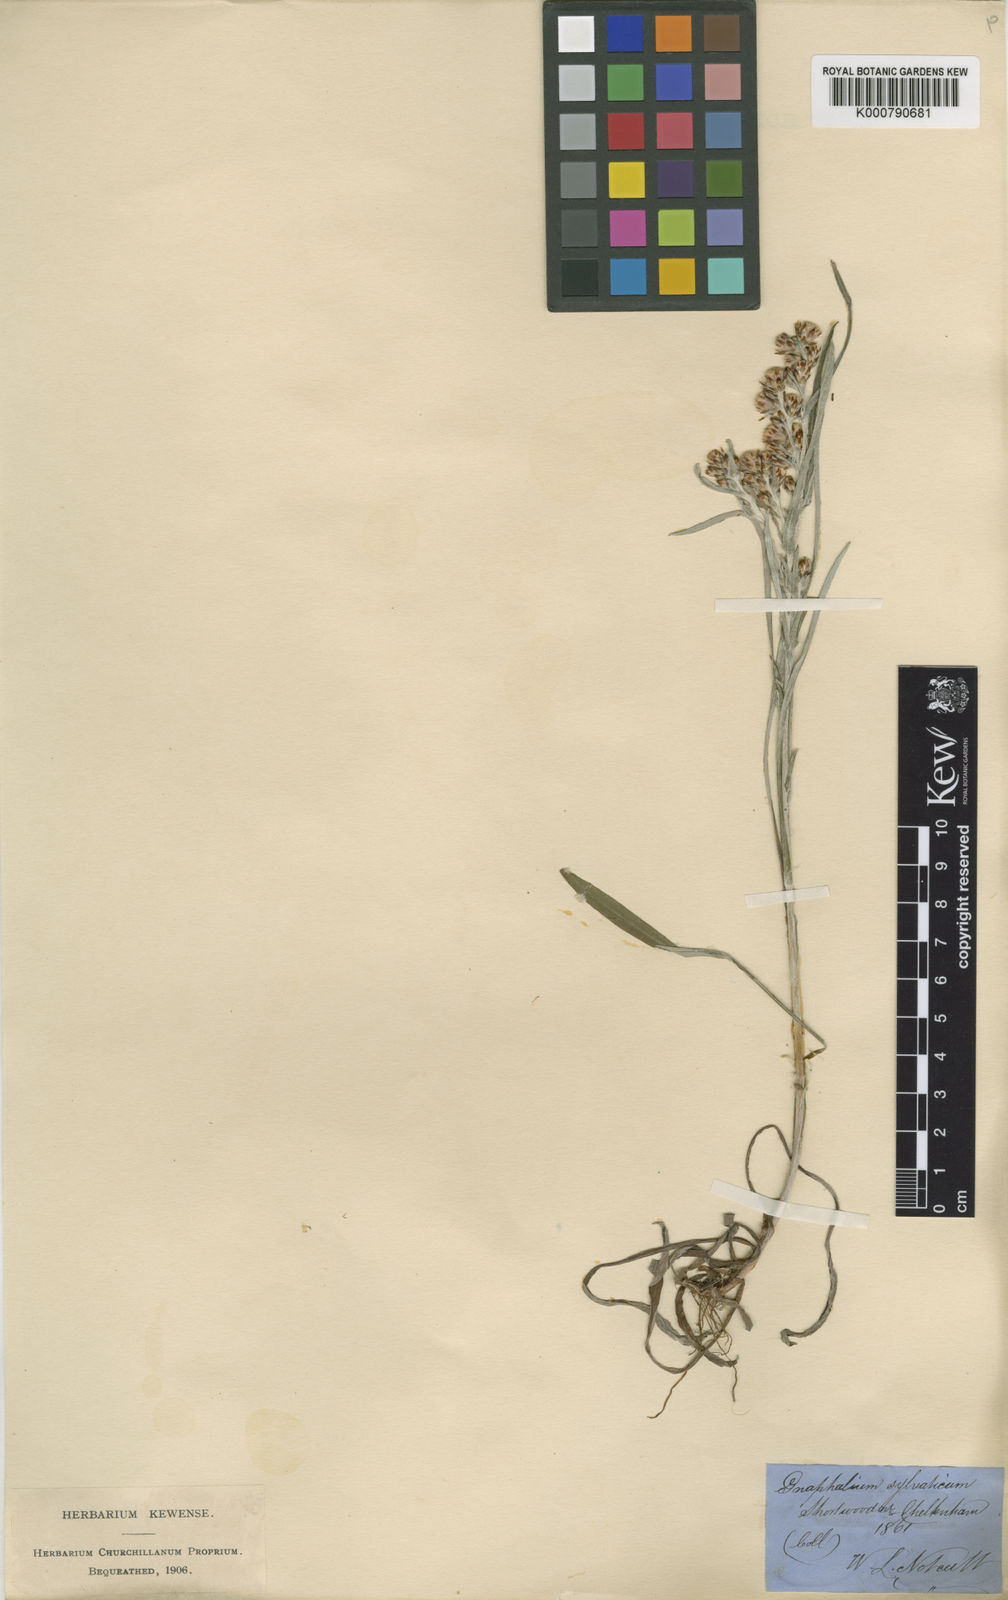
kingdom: Plantae
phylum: Tracheophyta
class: Magnoliopsida
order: Asterales
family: Asteraceae
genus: Omalotheca
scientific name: Omalotheca sylvatica
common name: Heath cudweed
